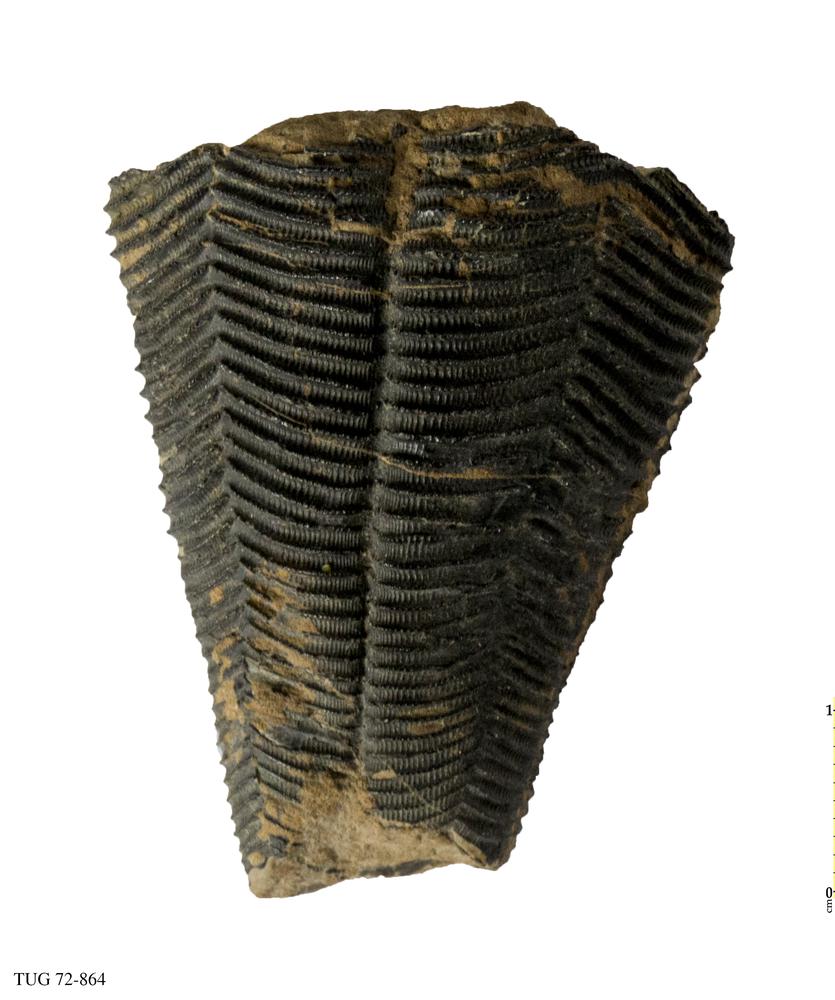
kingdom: Animalia
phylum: Cnidaria
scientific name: Cnidaria
